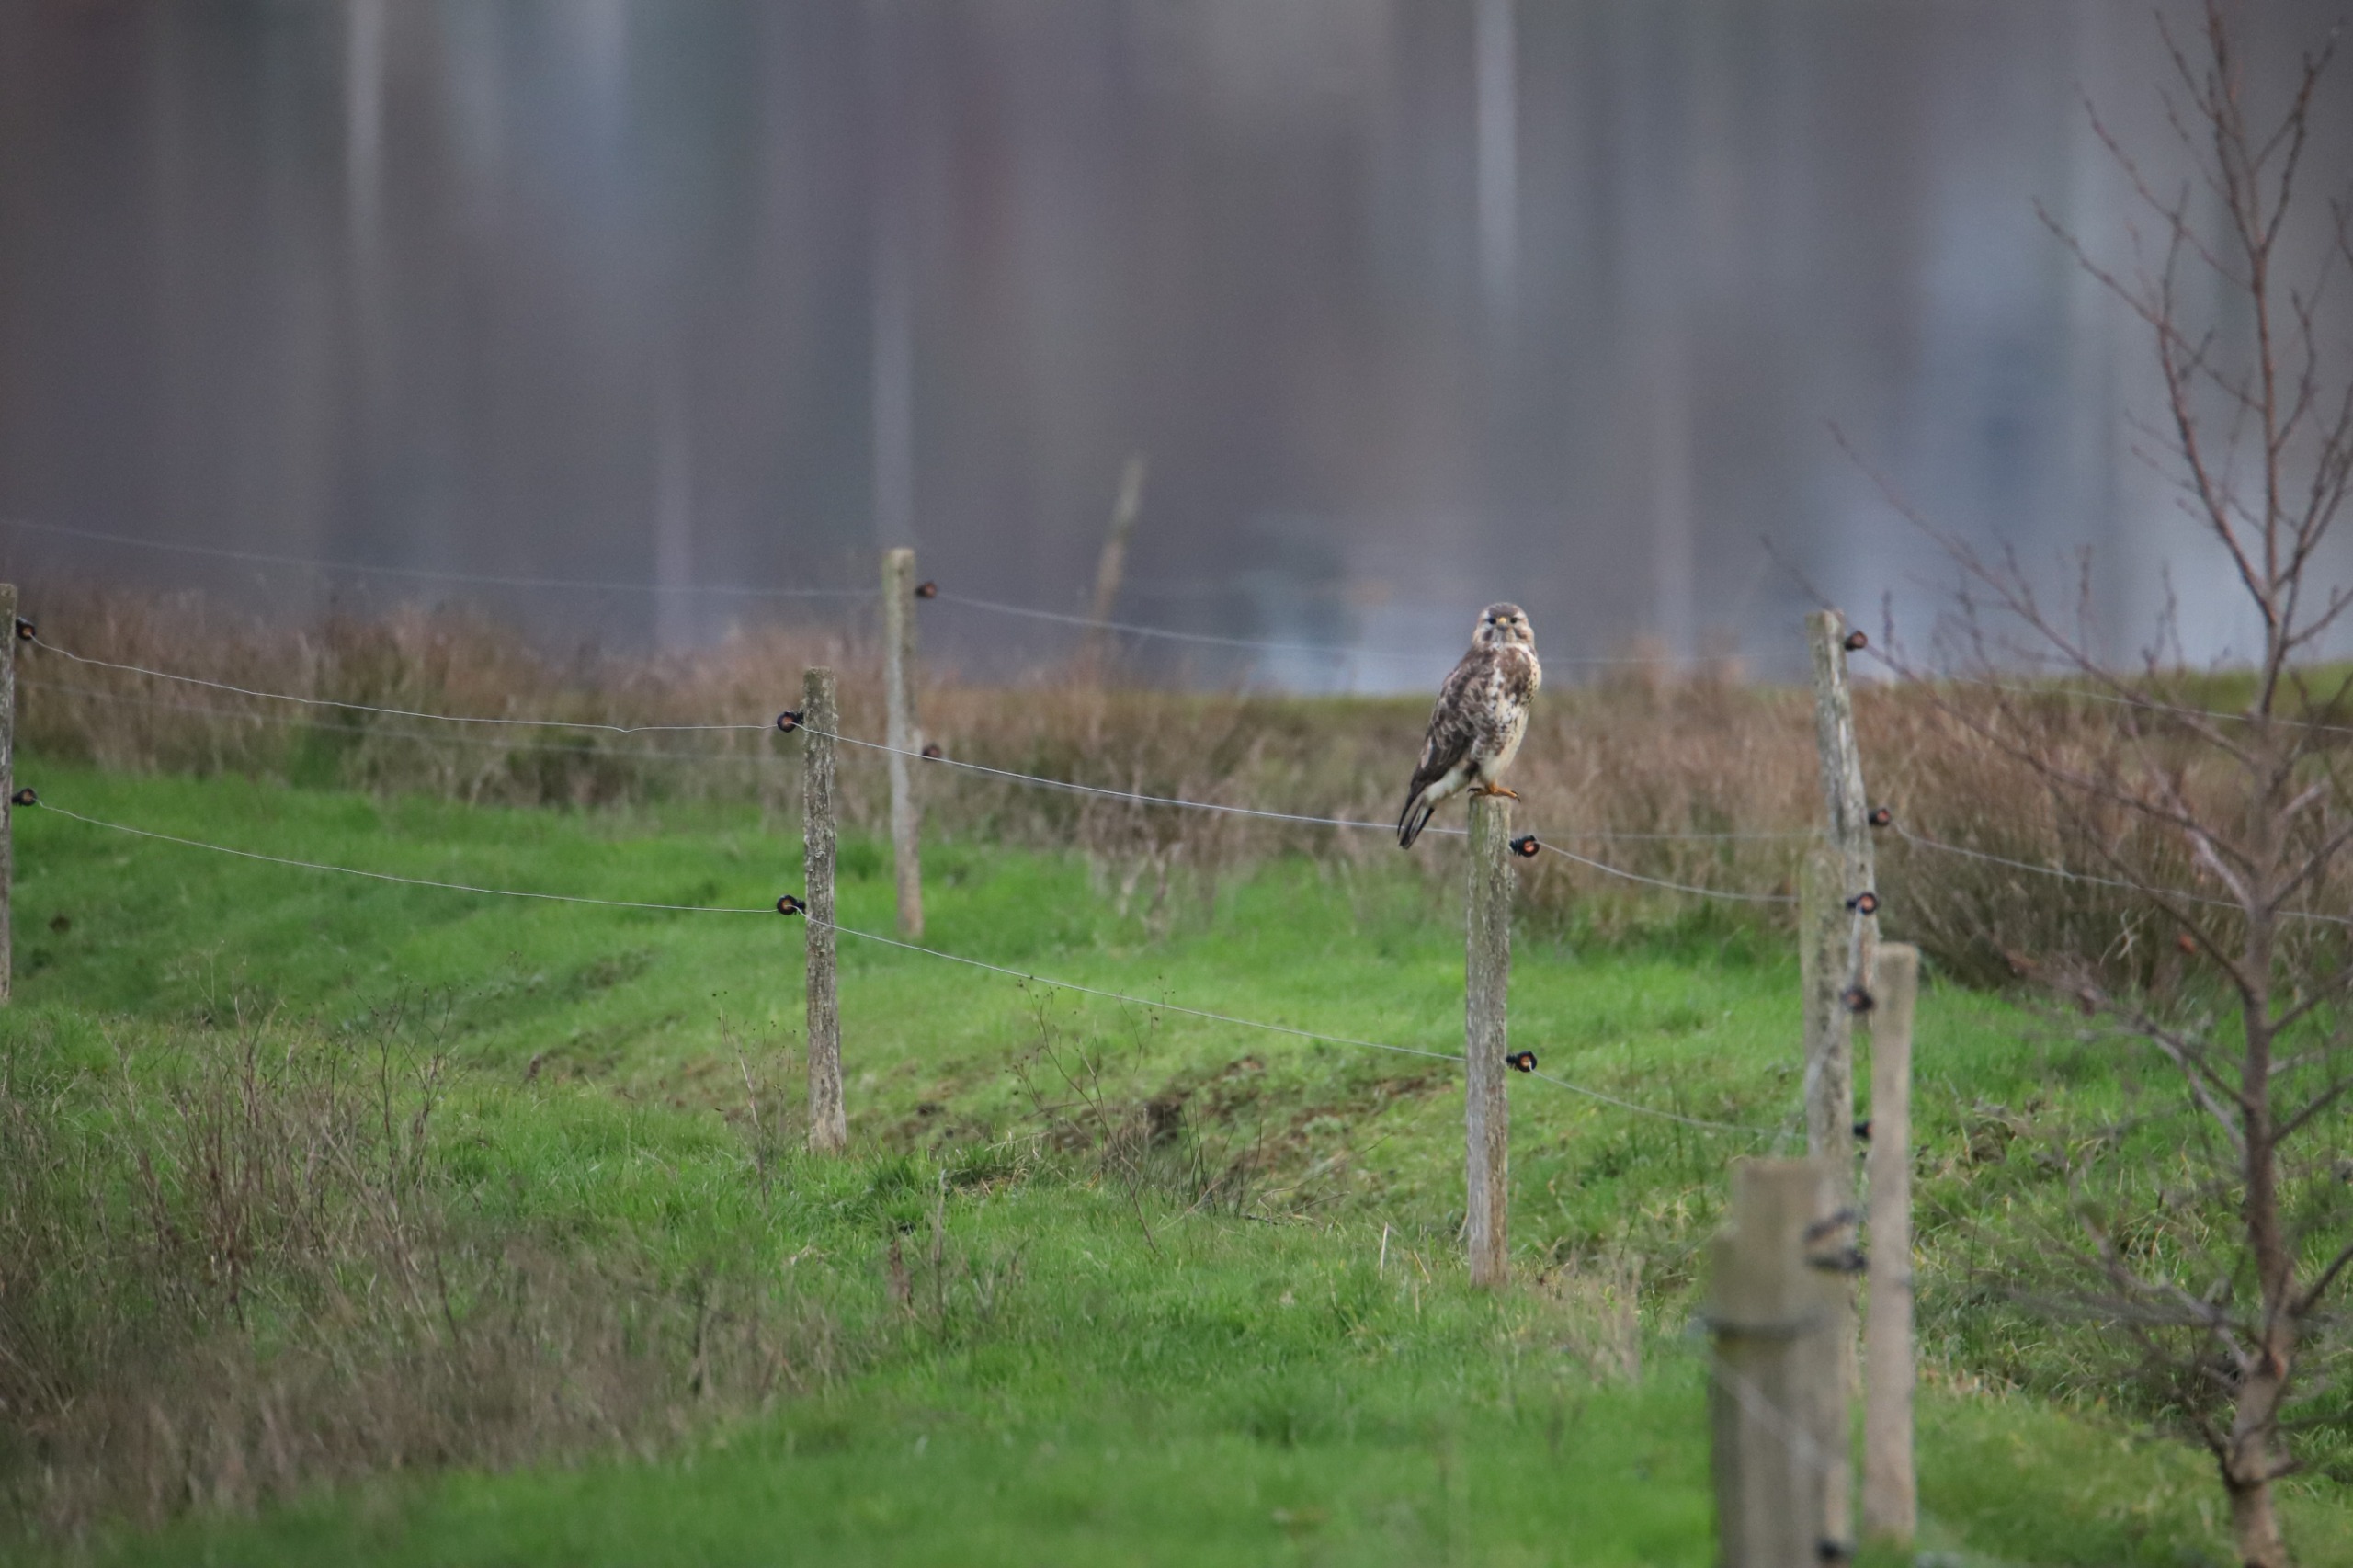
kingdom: Animalia
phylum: Chordata
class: Aves
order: Accipitriformes
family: Accipitridae
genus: Buteo
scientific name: Buteo buteo
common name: Musvåge
